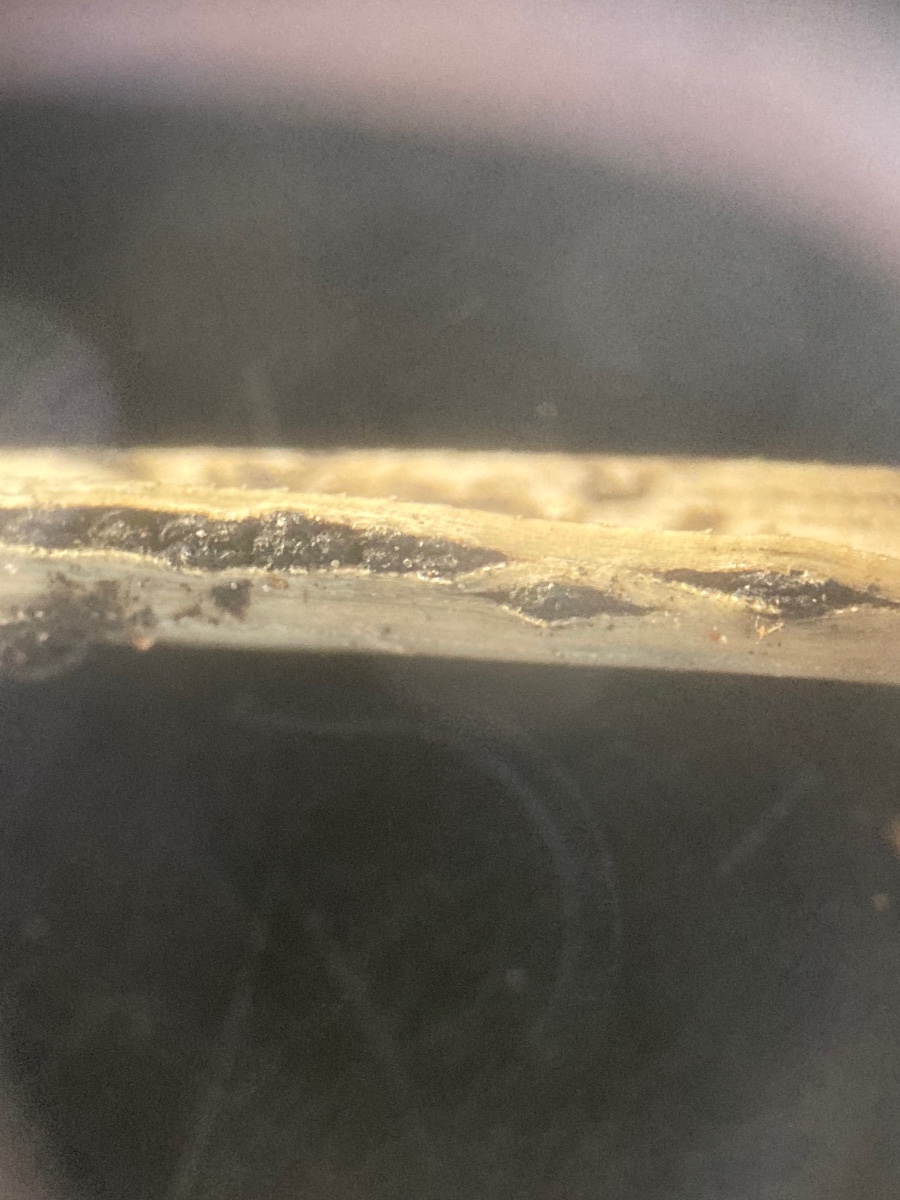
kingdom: Fungi
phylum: Ascomycota
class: Dothideomycetes
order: Botryosphaeriales
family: Botryosphaeriaceae
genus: Sphaeropsis
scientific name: Sphaeropsis sapinea
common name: Sphaeropsis blight
